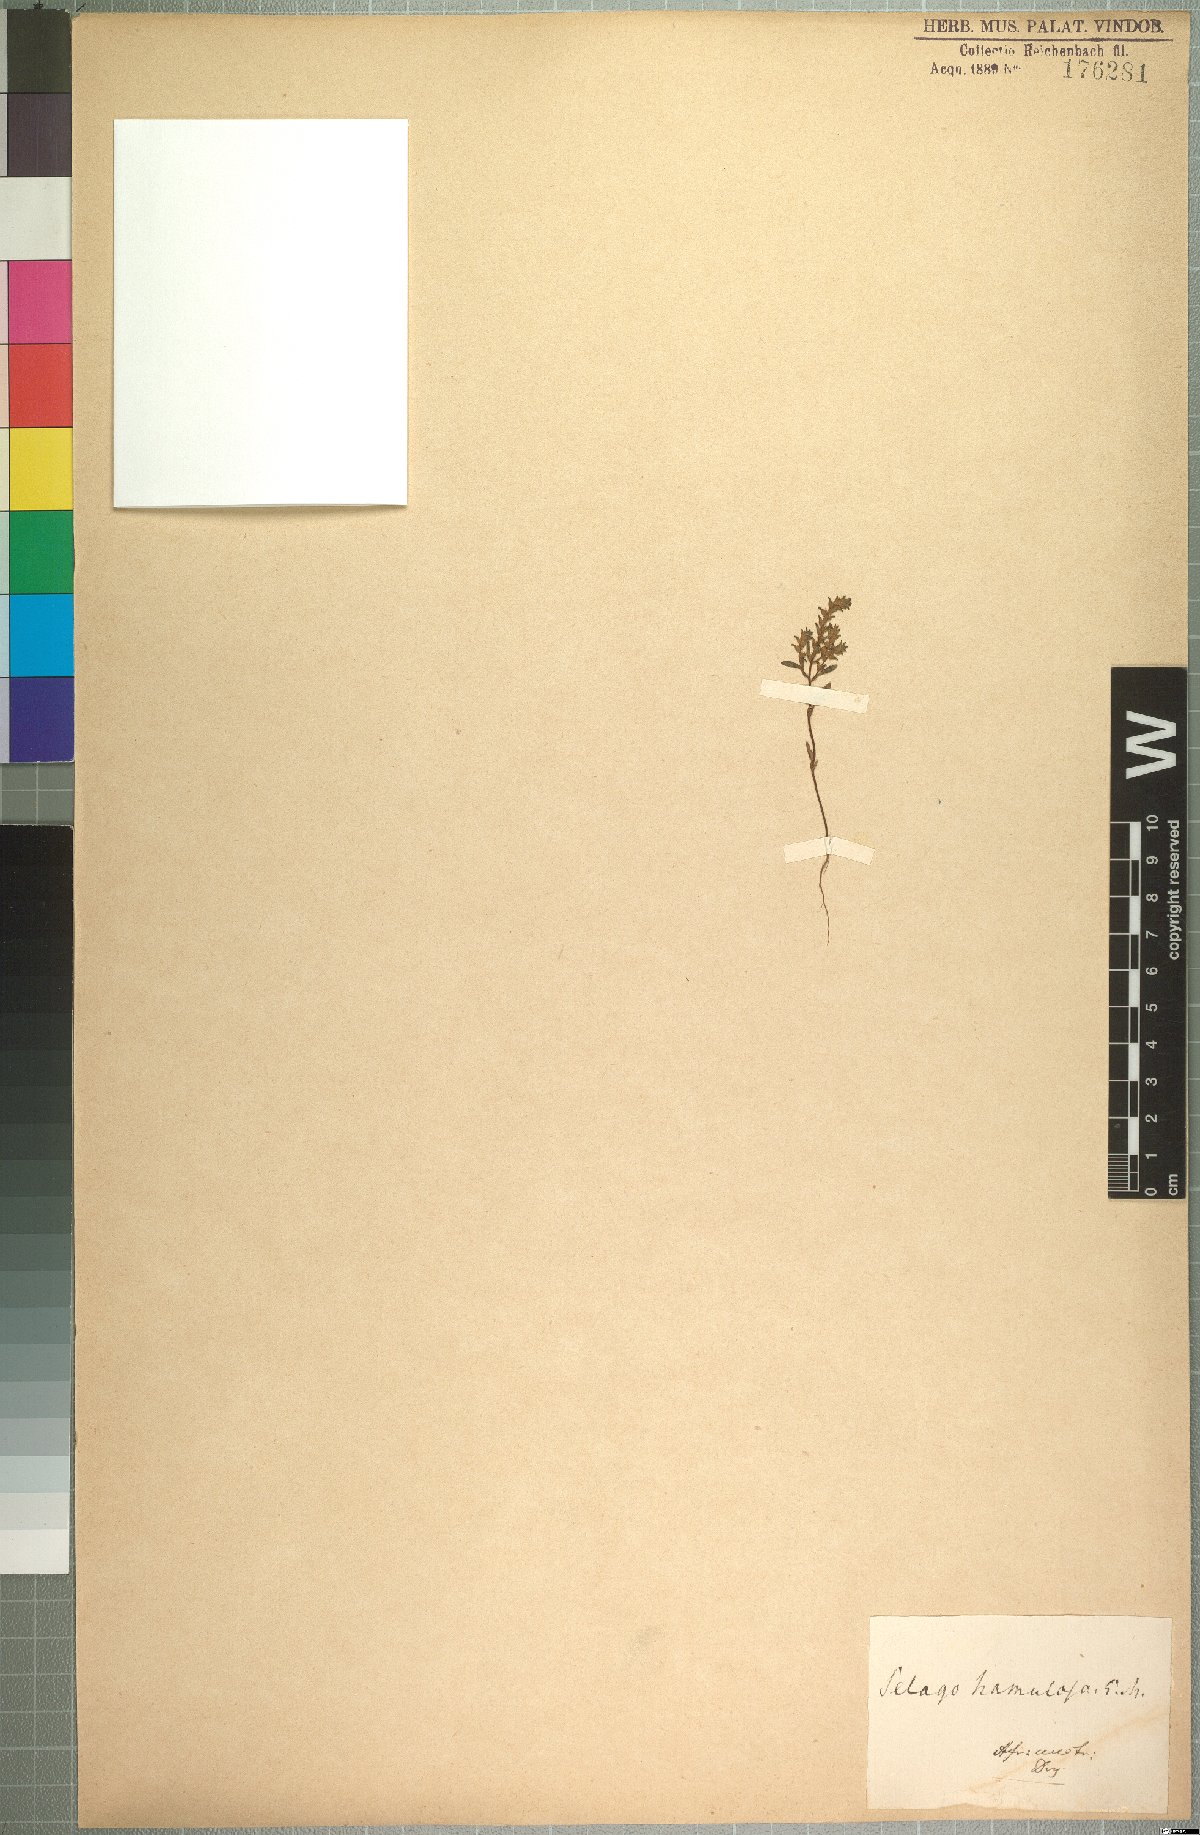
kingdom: Plantae
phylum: Tracheophyta
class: Magnoliopsida
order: Lamiales
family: Scrophulariaceae
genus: Cromidon
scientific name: Cromidon hamulosum
